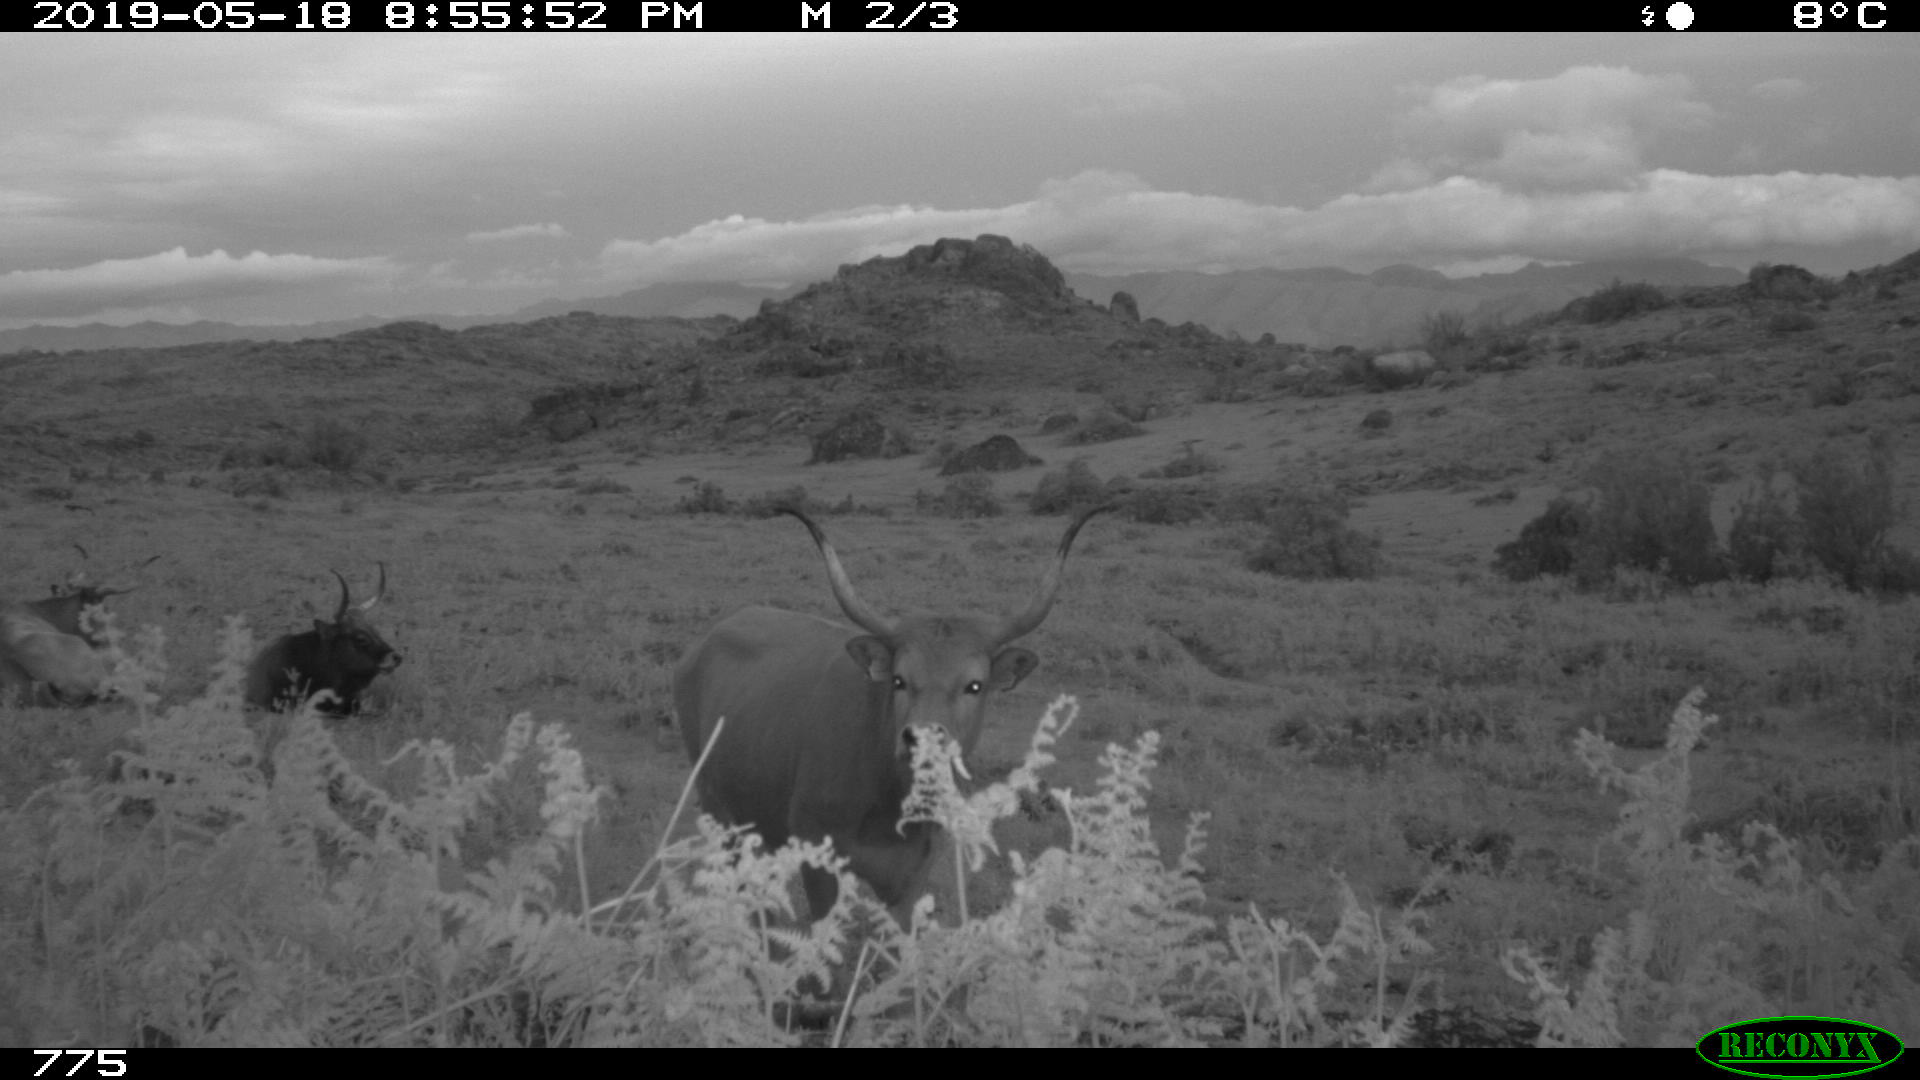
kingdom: Animalia
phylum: Chordata
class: Mammalia
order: Artiodactyla
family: Bovidae
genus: Bos
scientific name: Bos taurus
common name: Domesticated cattle
